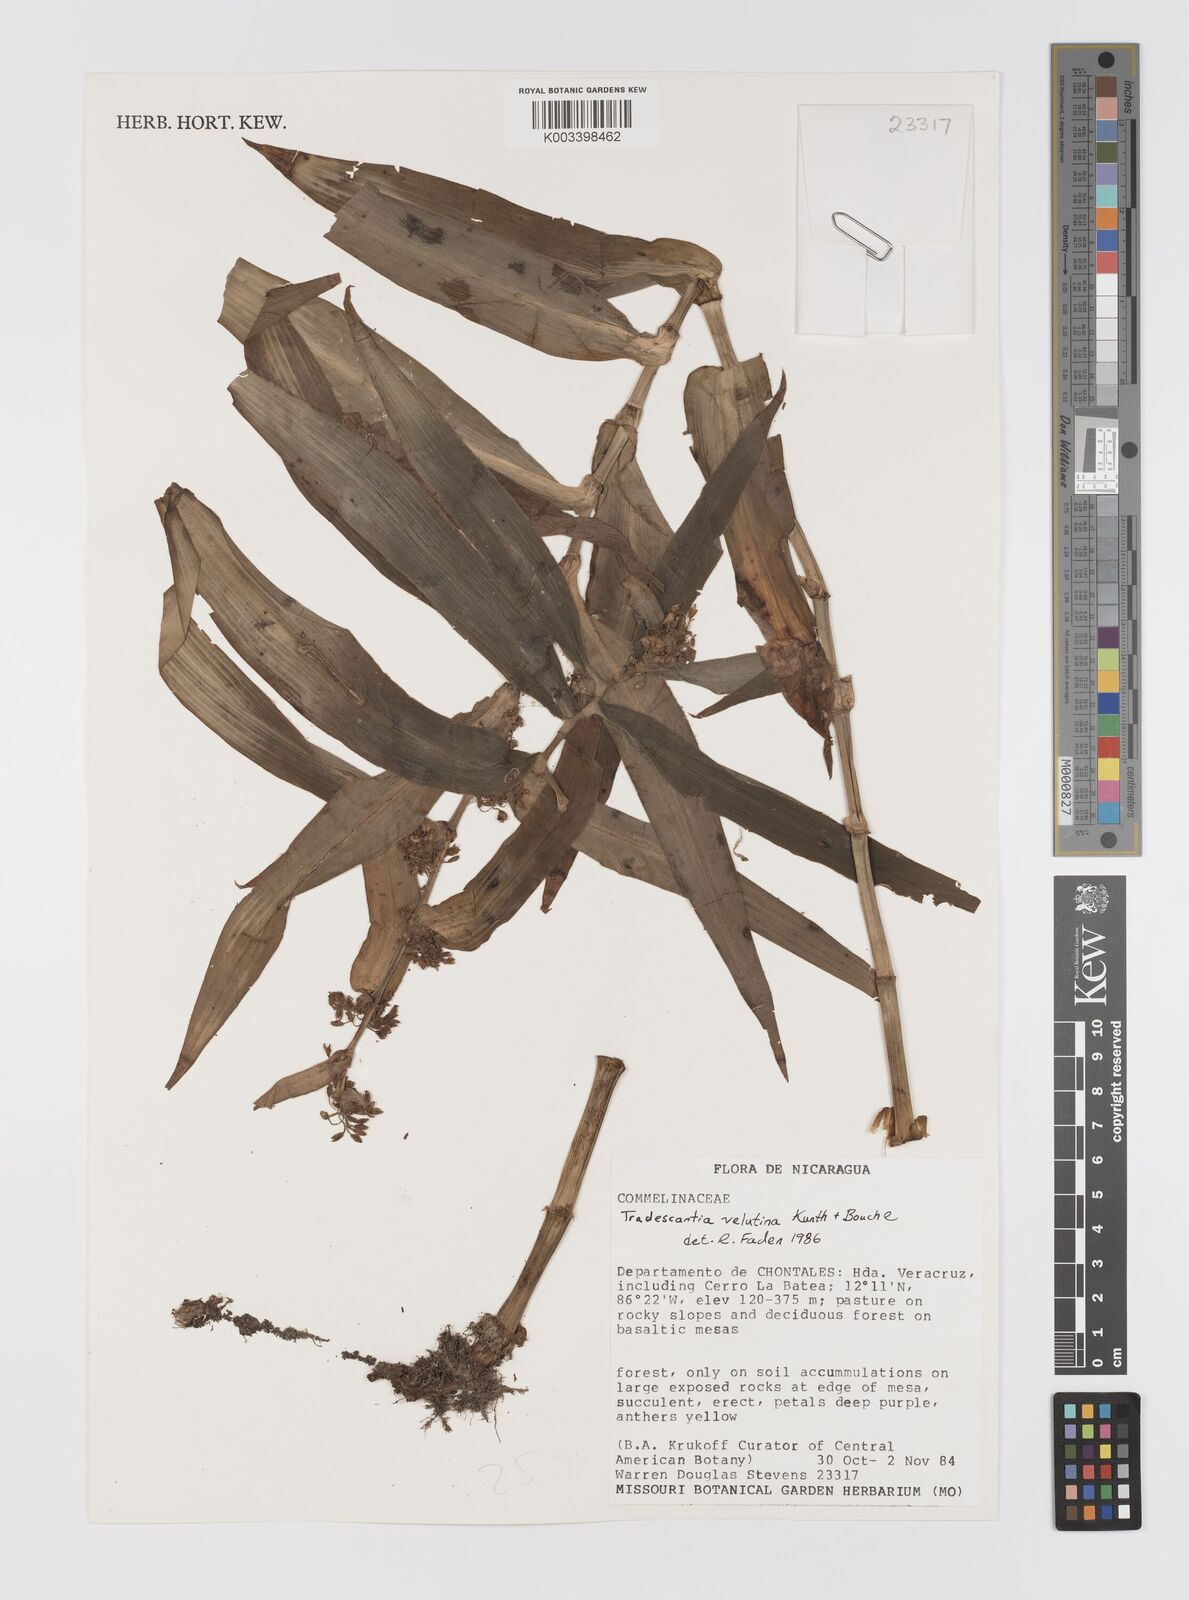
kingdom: Plantae
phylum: Tracheophyta
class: Liliopsida
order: Commelinales
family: Commelinaceae
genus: Tradescantia
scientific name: Tradescantia velutina
